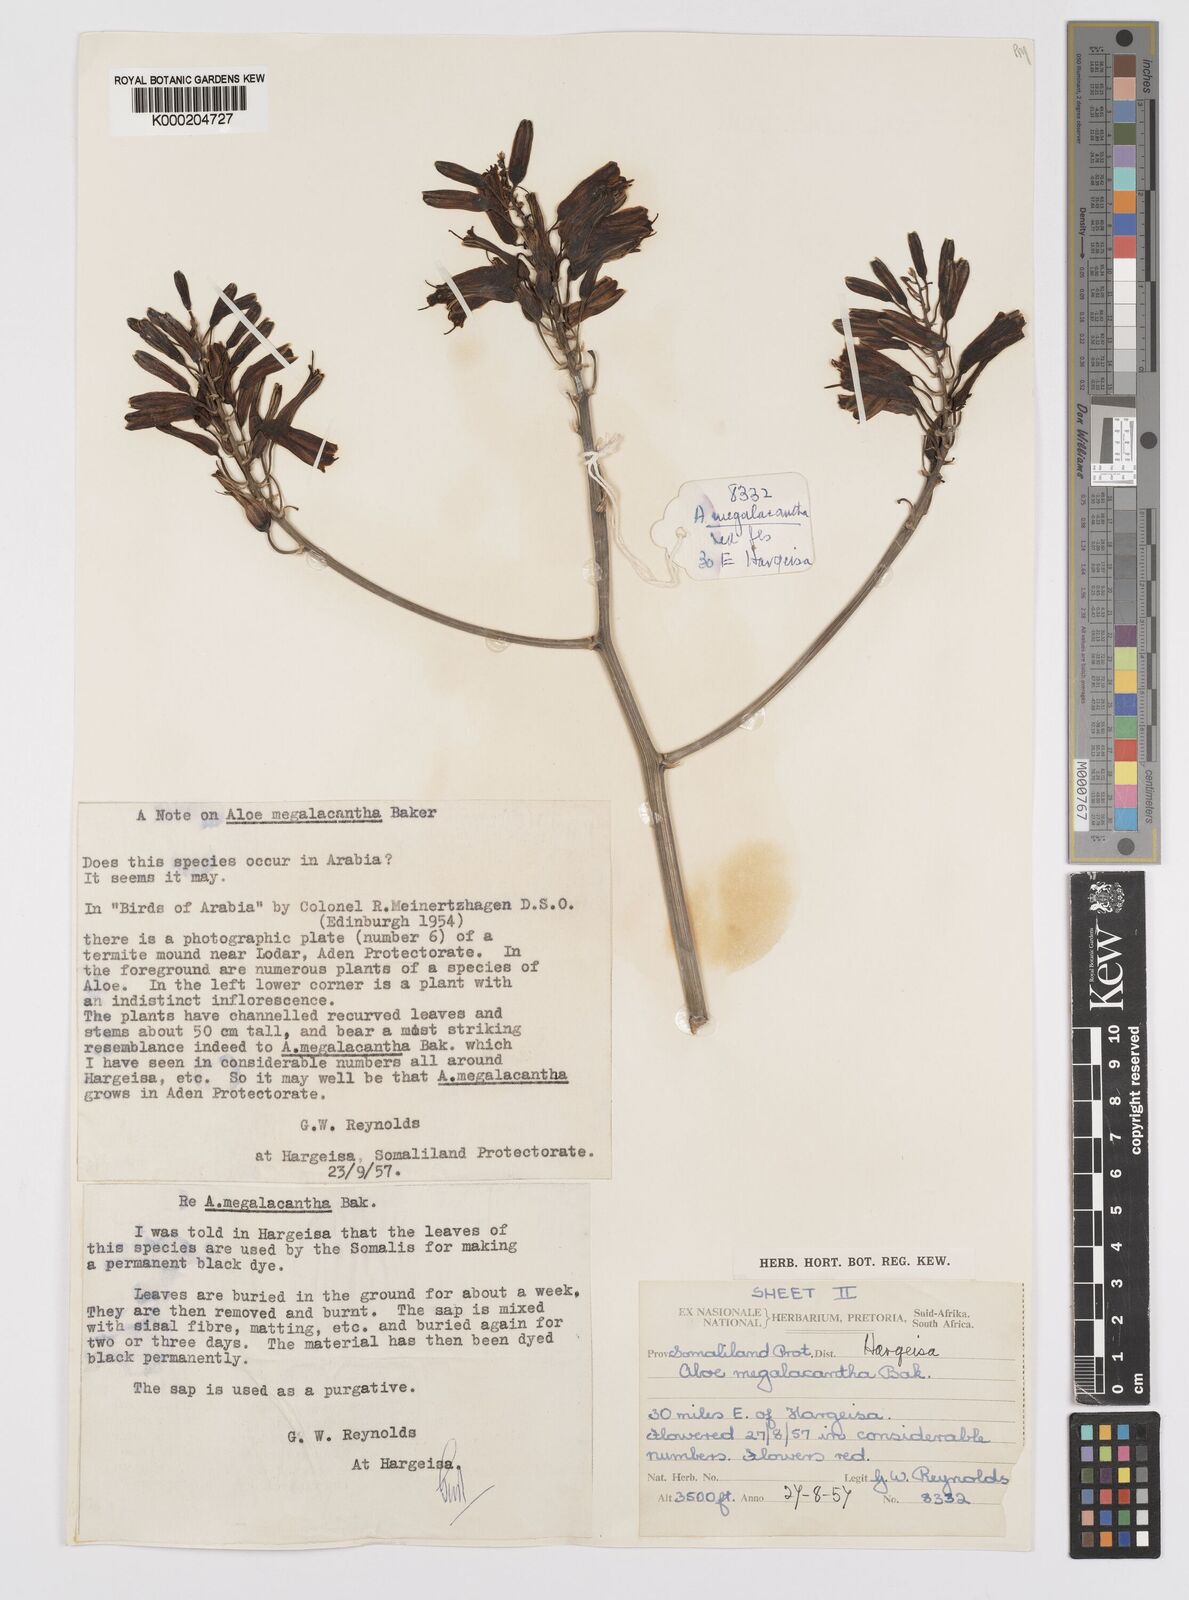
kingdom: Plantae
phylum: Tracheophyta
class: Liliopsida
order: Asparagales
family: Asphodelaceae
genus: Aloe
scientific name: Aloe megalacantha
